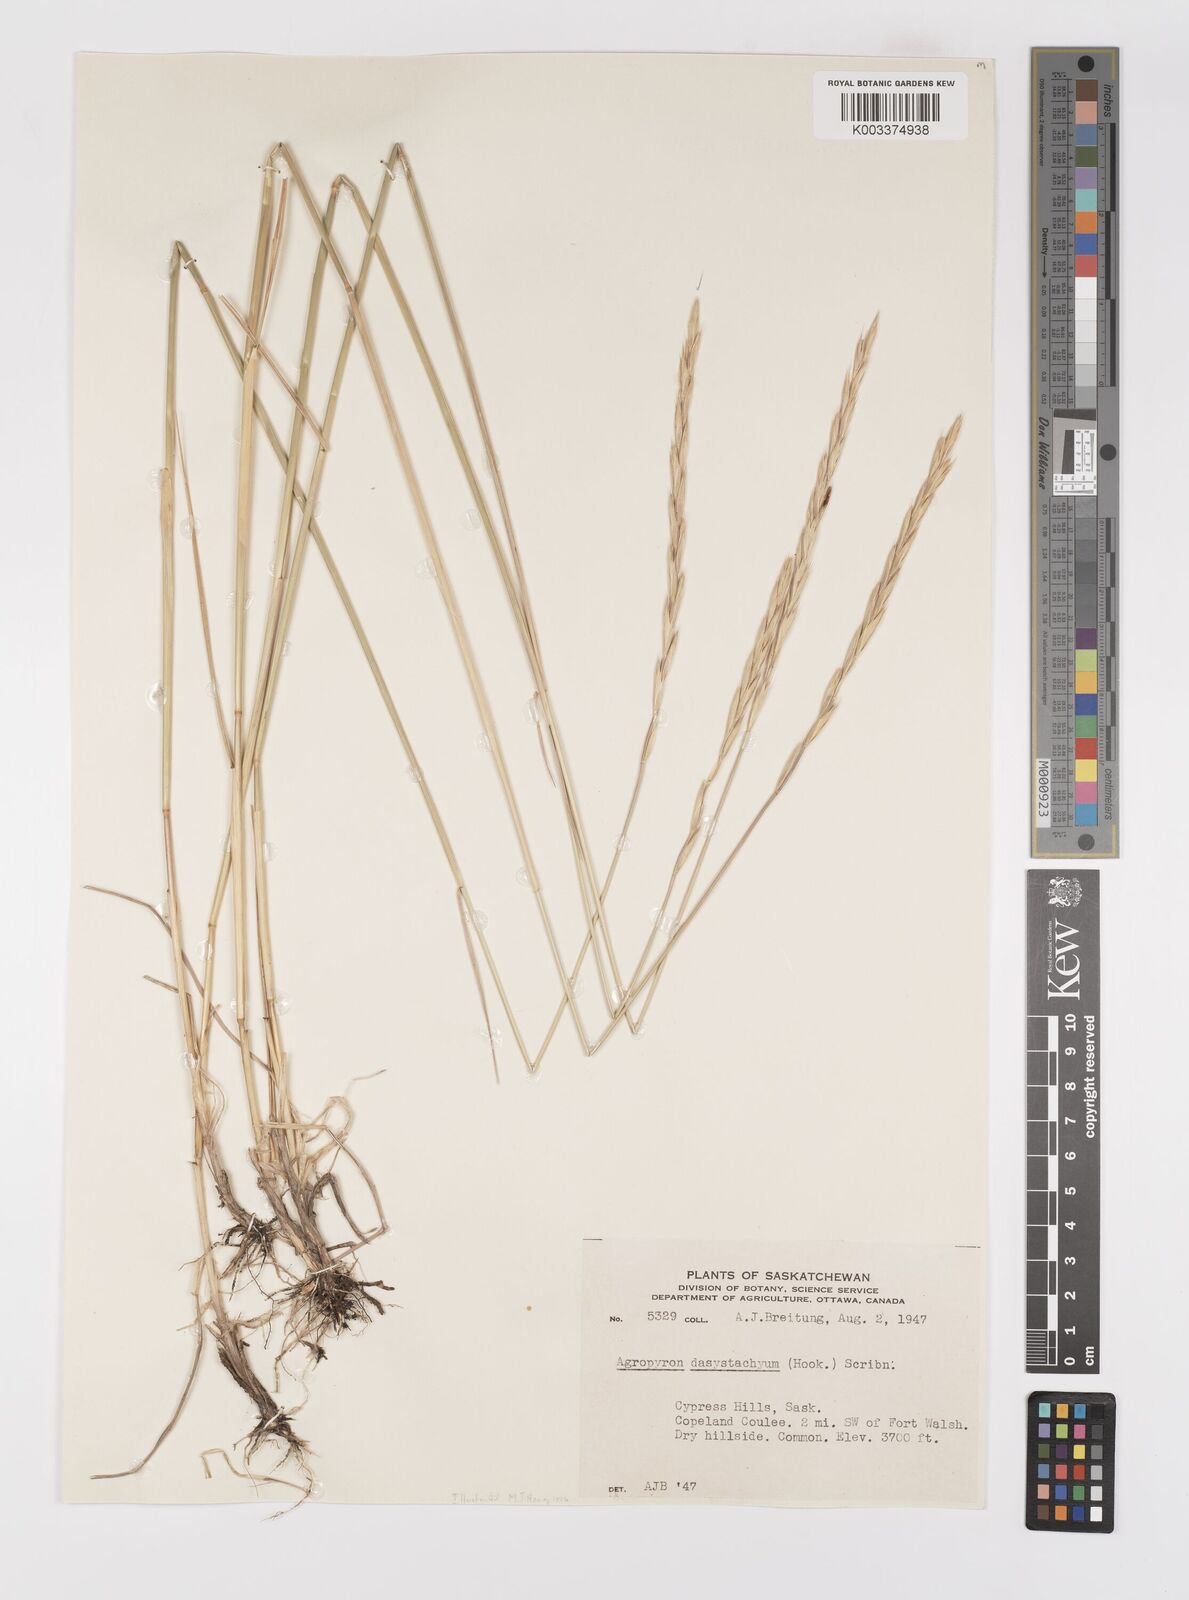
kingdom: Plantae
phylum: Tracheophyta
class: Liliopsida
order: Poales
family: Poaceae
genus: Elymus
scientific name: Elymus lanceolatus
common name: Thick-spike wheatgrass
